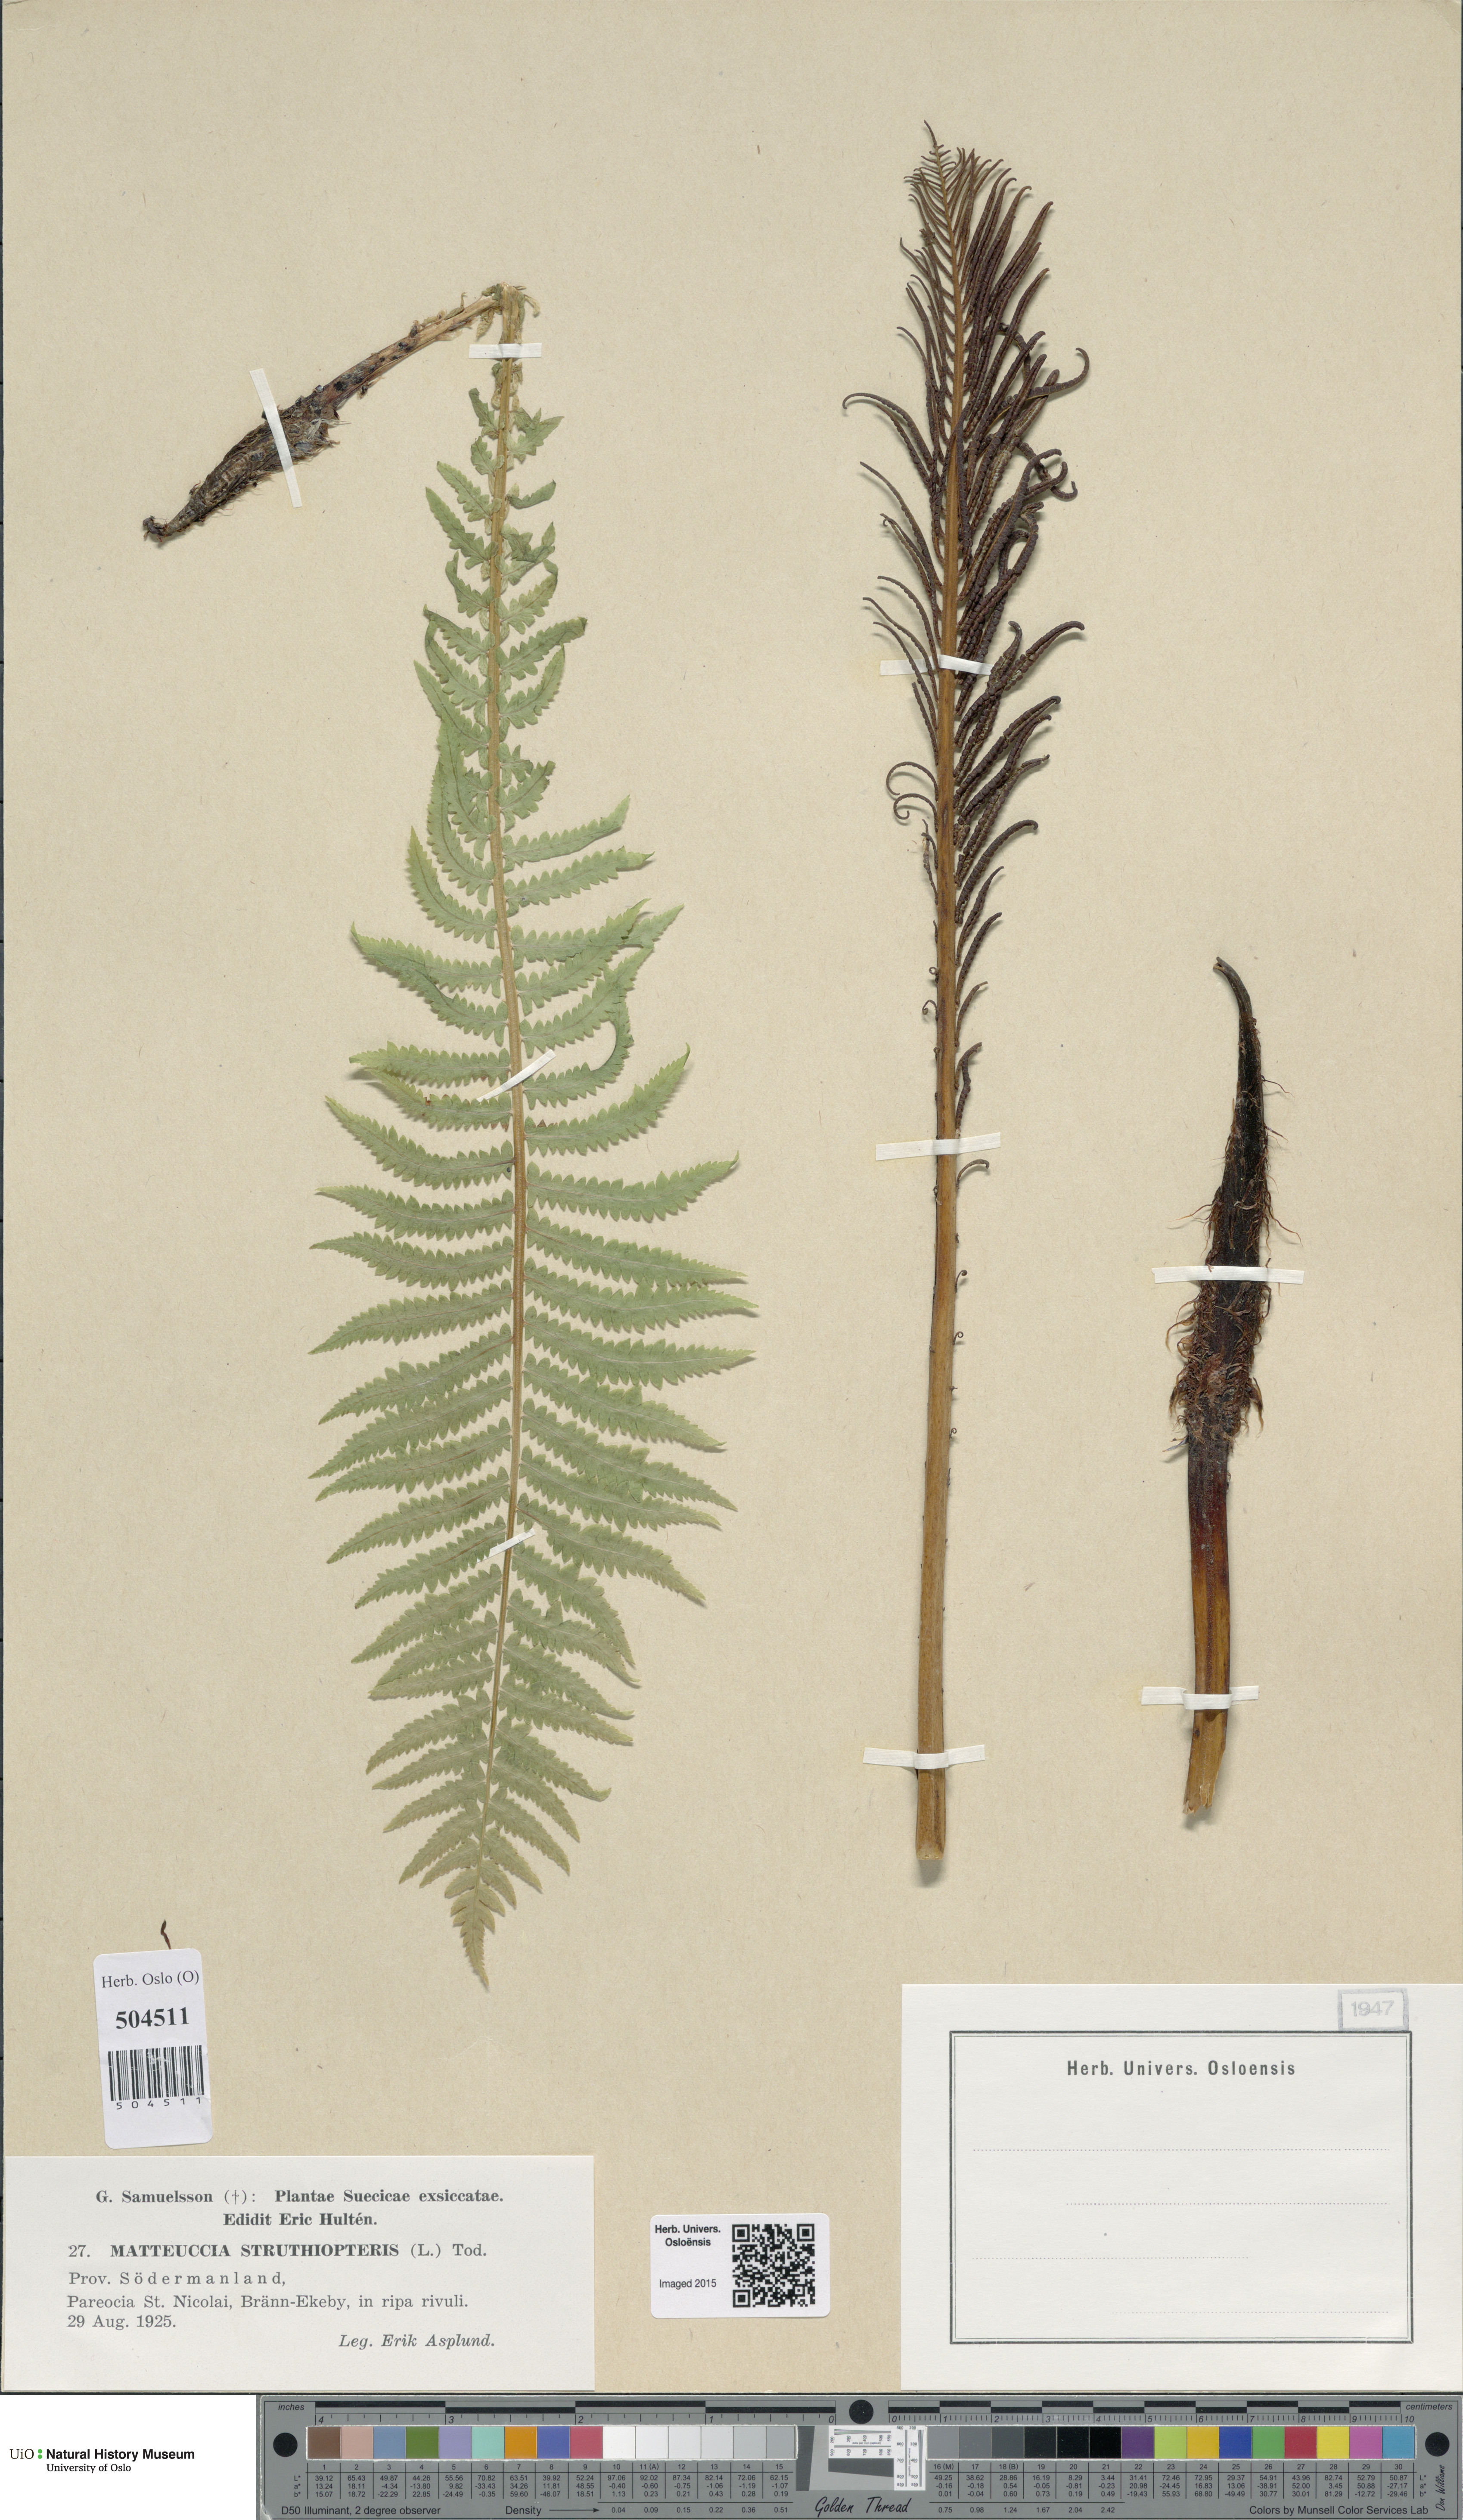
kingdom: Plantae
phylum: Tracheophyta
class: Polypodiopsida
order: Polypodiales
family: Onocleaceae
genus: Matteuccia
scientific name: Matteuccia struthiopteris
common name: Ostrich fern
